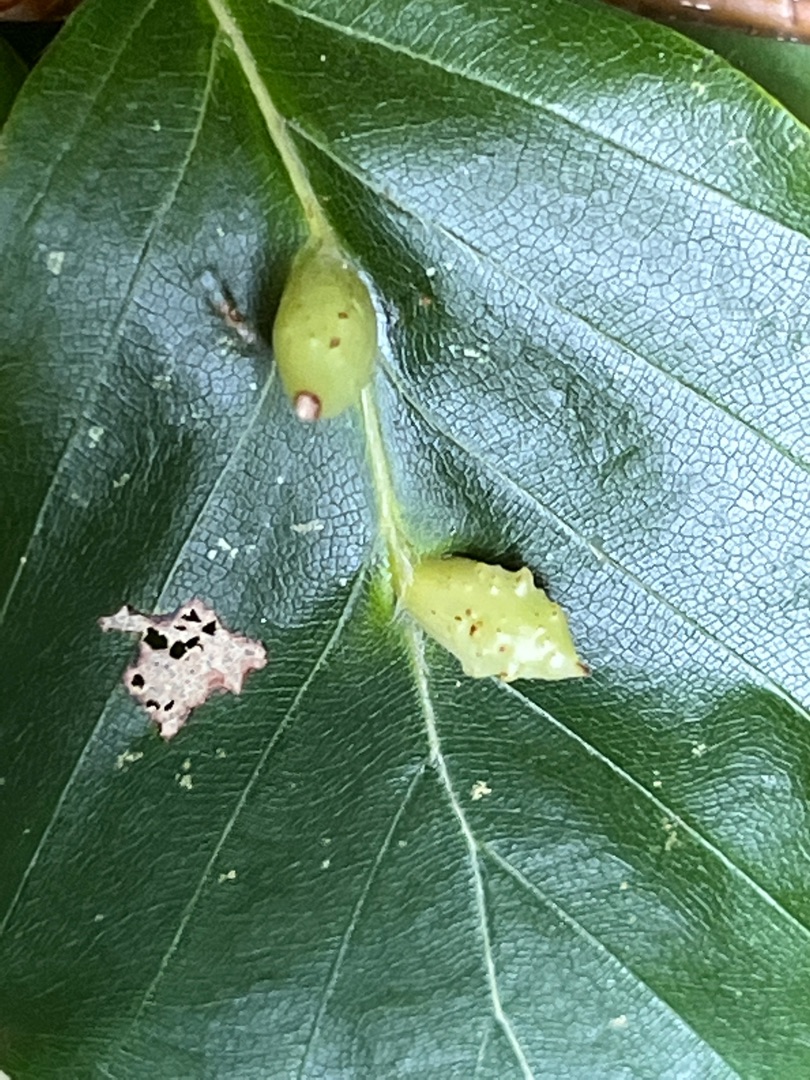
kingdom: Animalia
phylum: Arthropoda
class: Insecta
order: Diptera
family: Cecidomyiidae
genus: Mikiola
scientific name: Mikiola fagi
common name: Bøgegalmyg
